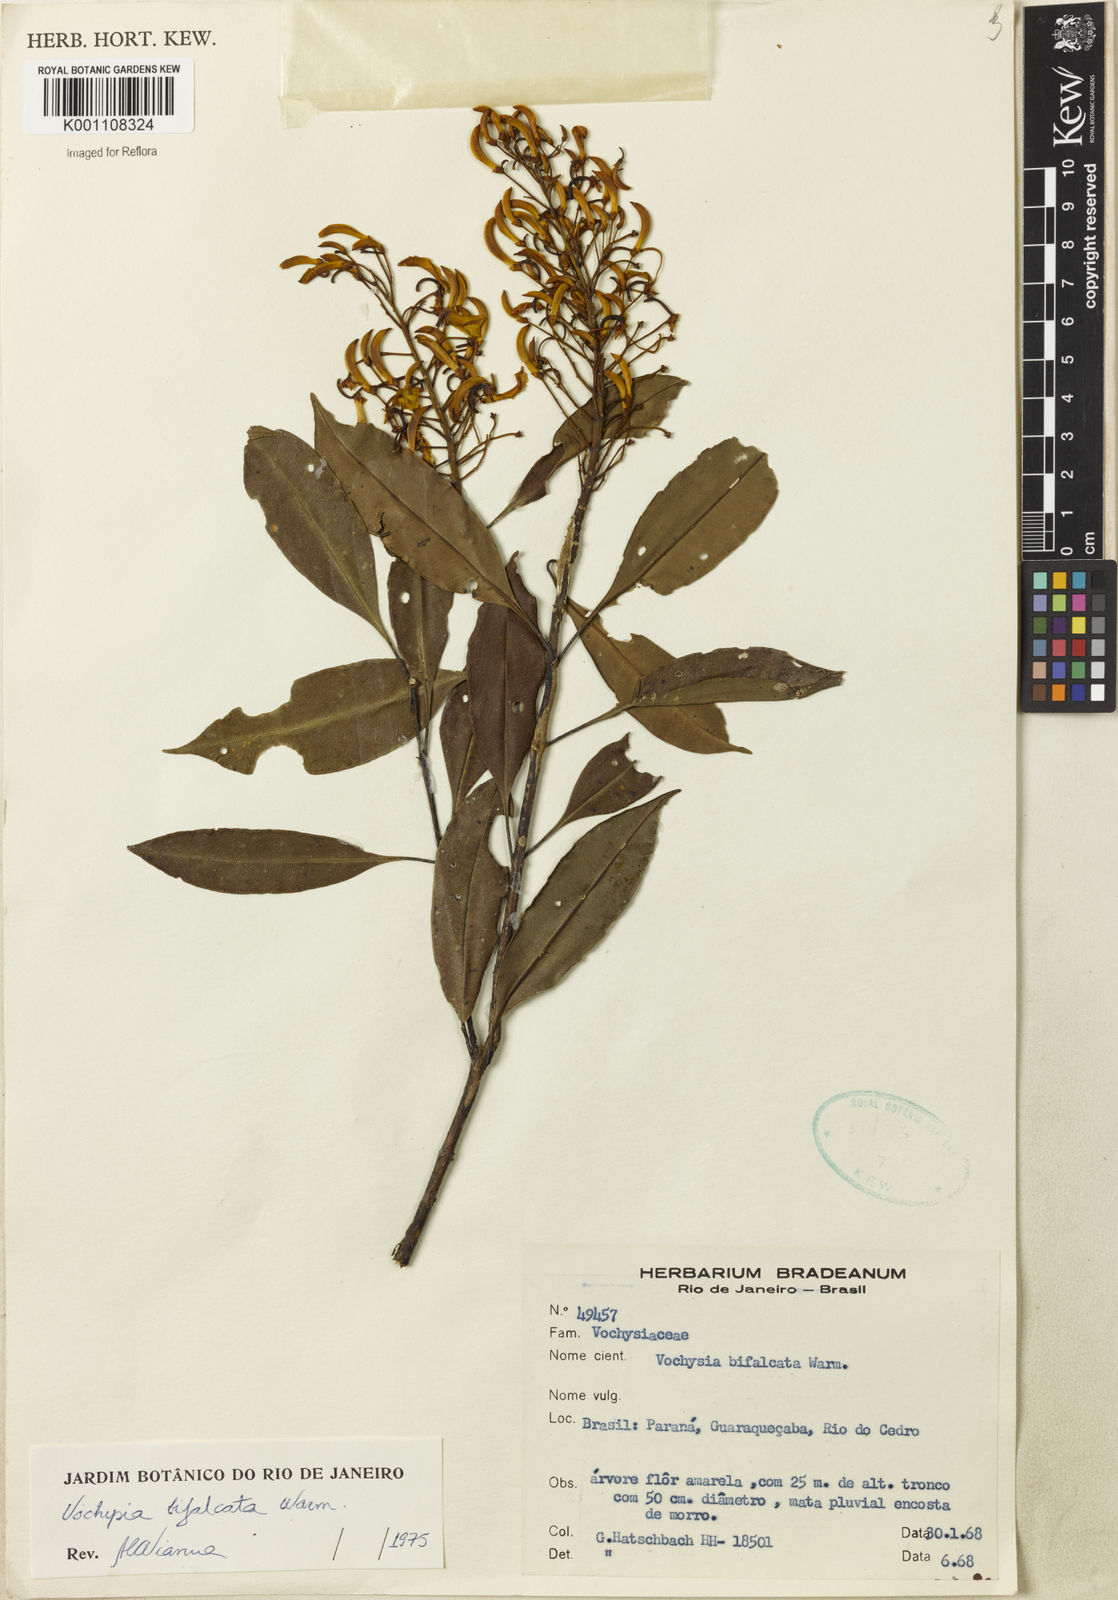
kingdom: Plantae
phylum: Tracheophyta
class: Magnoliopsida
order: Myrtales
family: Vochysiaceae
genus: Vochysia
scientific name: Vochysia bifalcata
